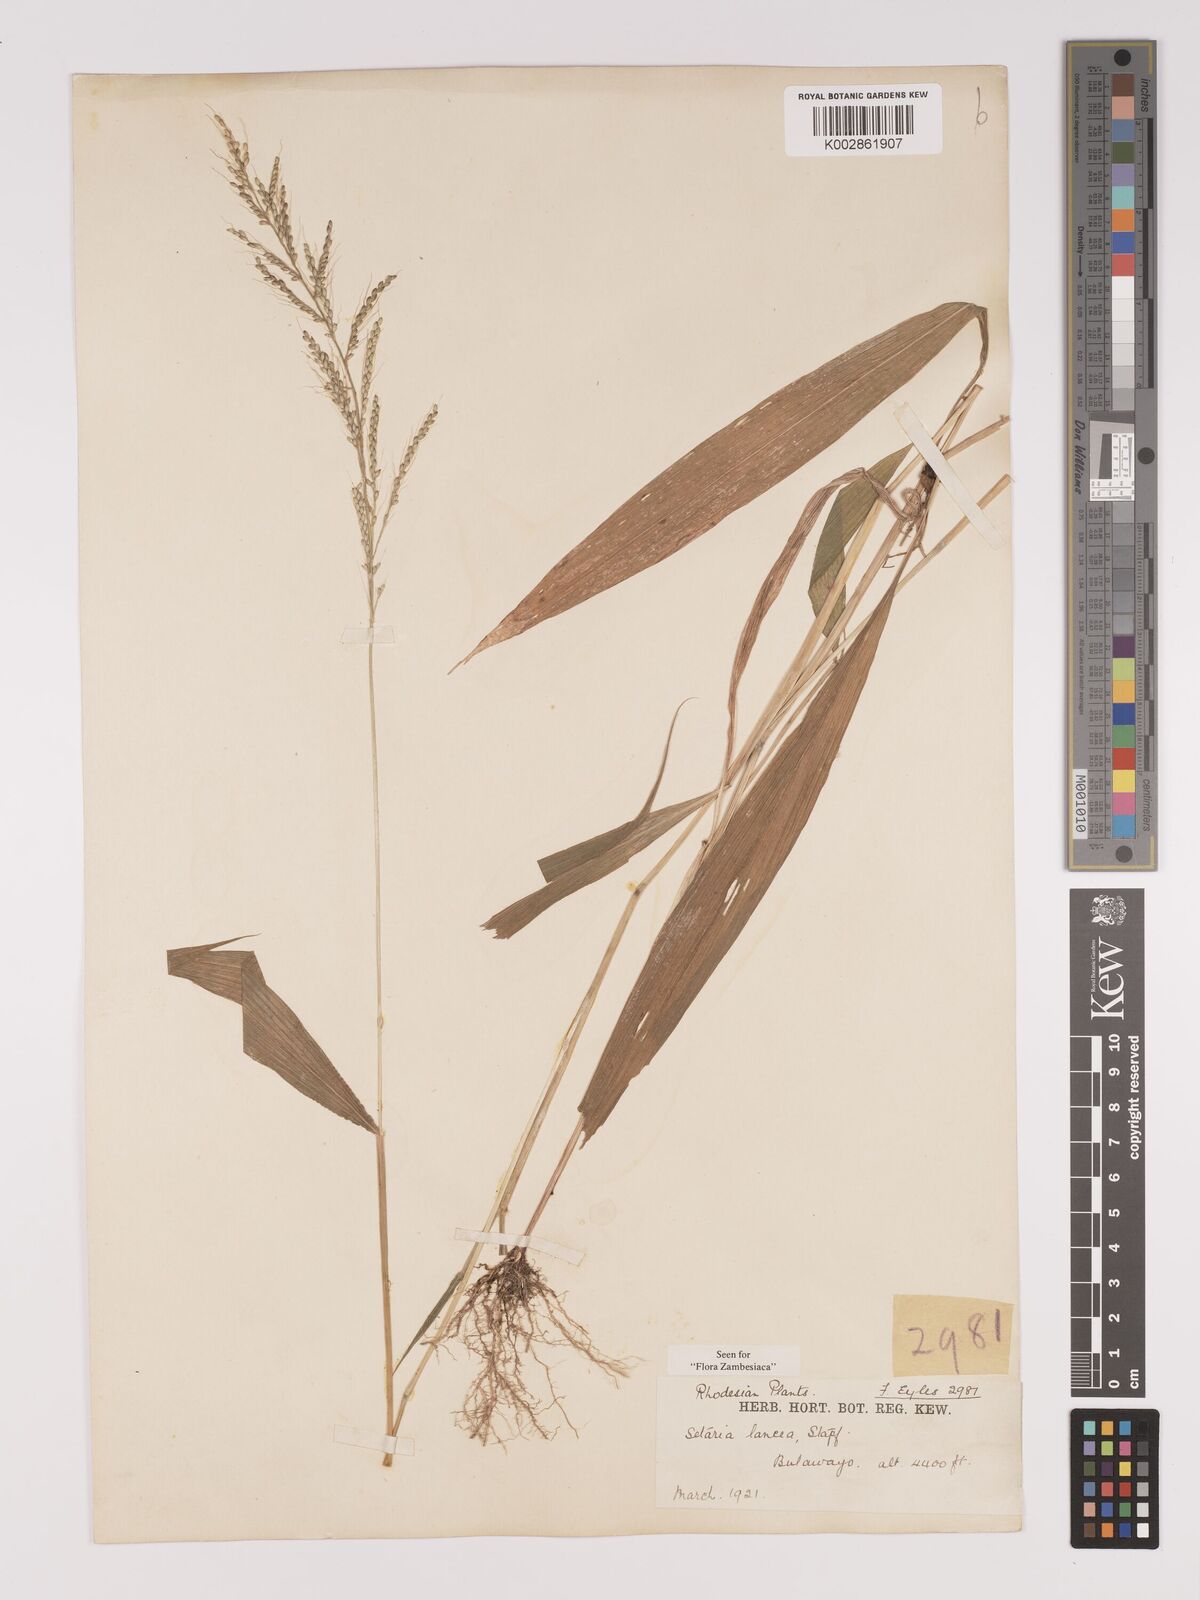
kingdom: Plantae
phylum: Tracheophyta
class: Liliopsida
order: Poales
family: Poaceae
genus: Setaria
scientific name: Setaria homonyma
